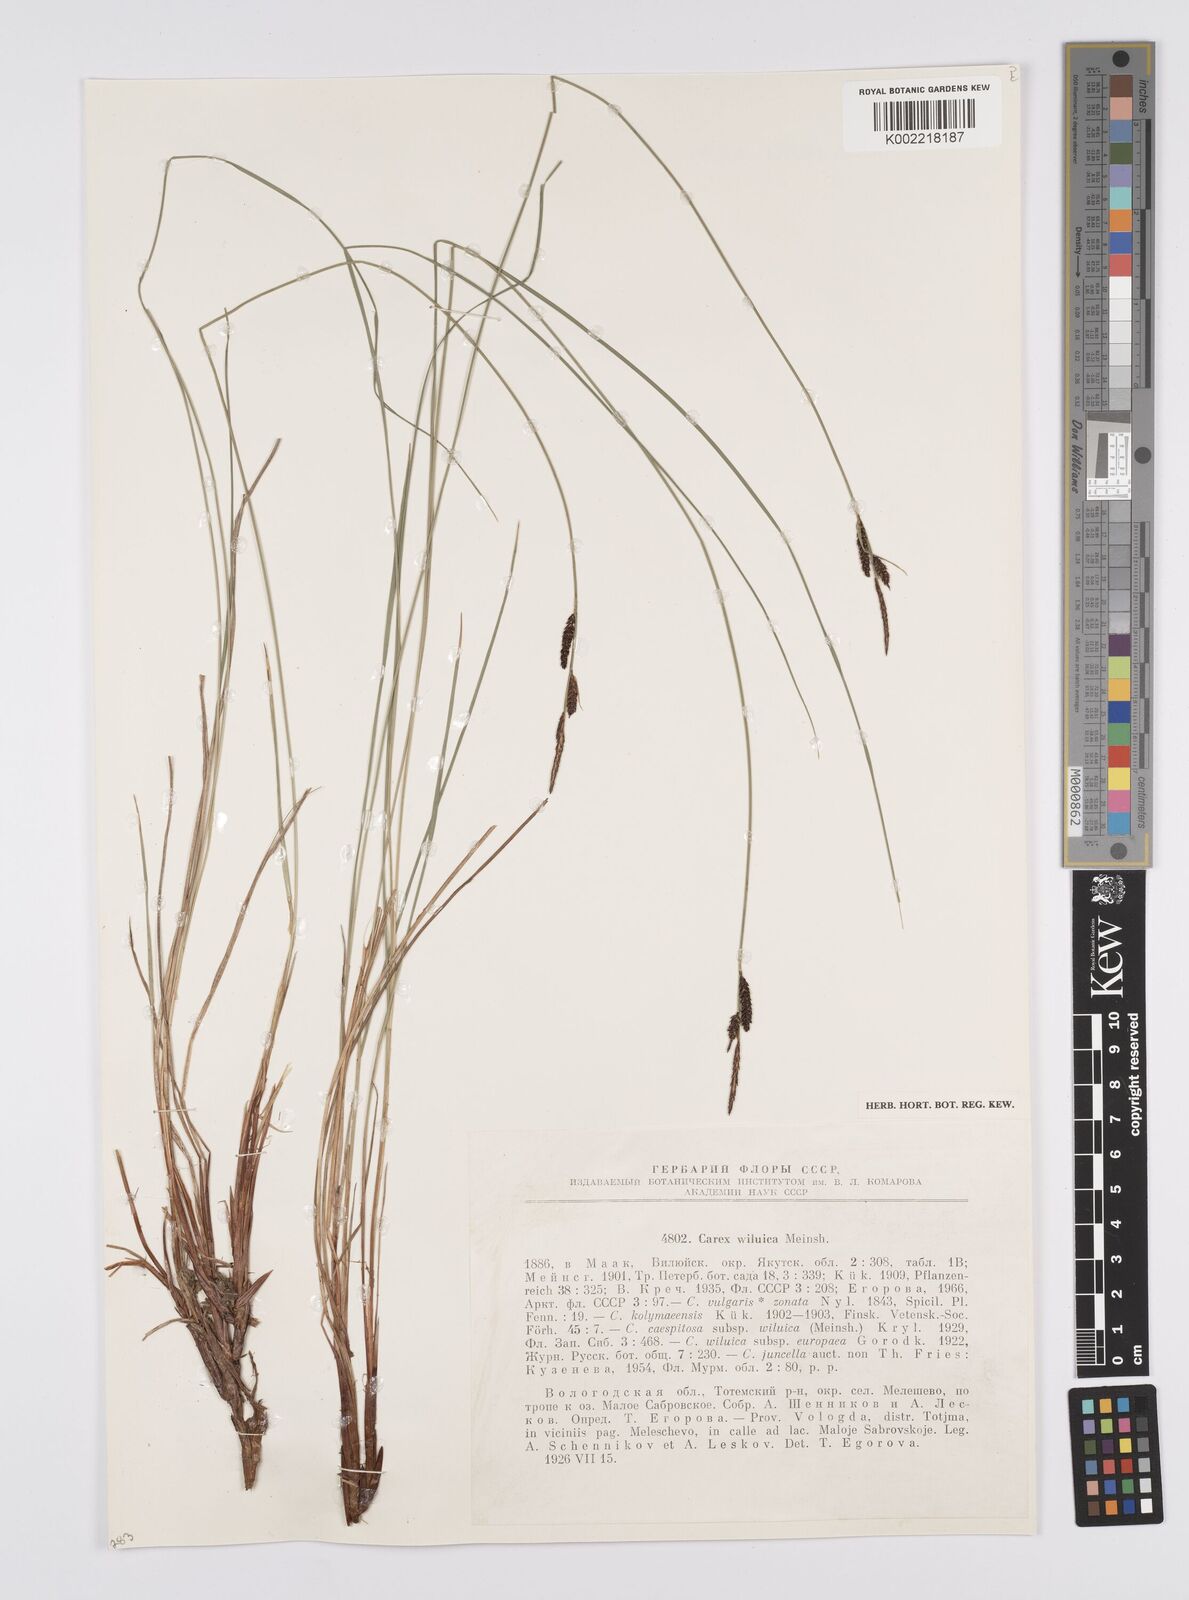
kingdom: Plantae
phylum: Tracheophyta
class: Liliopsida
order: Poales
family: Cyperaceae
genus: Carex
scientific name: Carex nigra
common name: Common sedge
